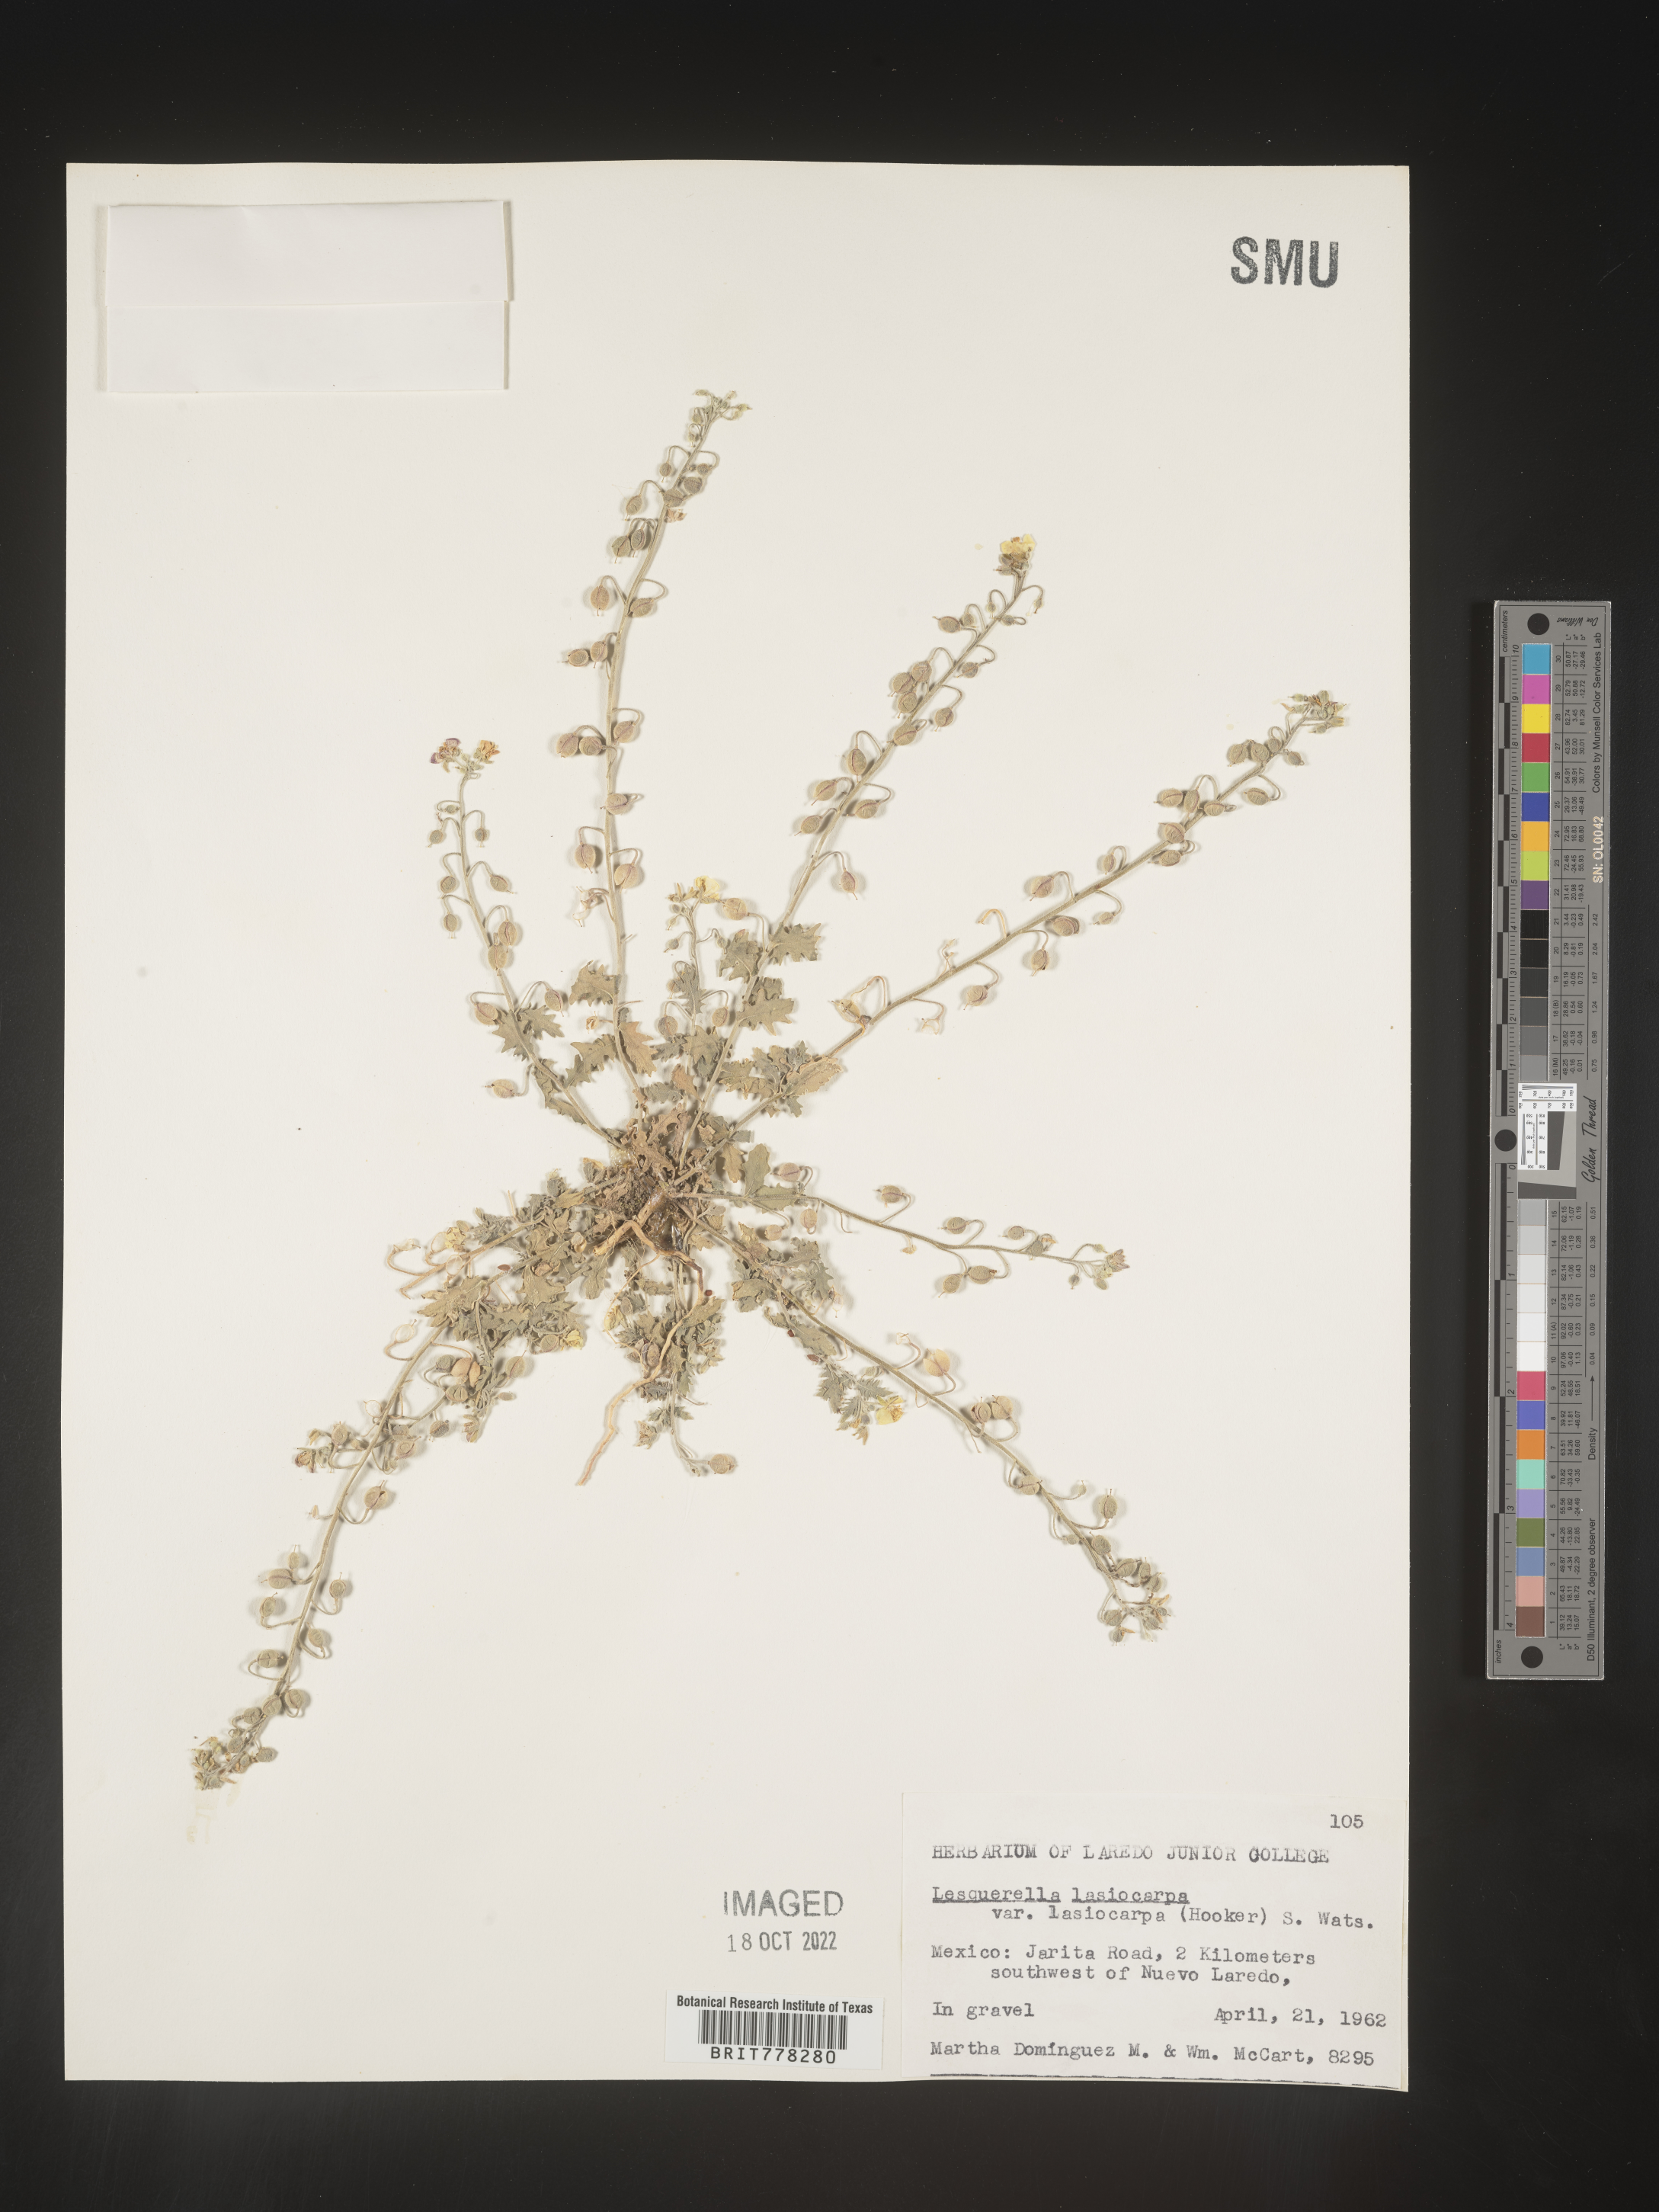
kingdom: Chromista
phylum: Cercozoa
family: Psammonobiotidae
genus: Lesquerella
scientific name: Lesquerella
